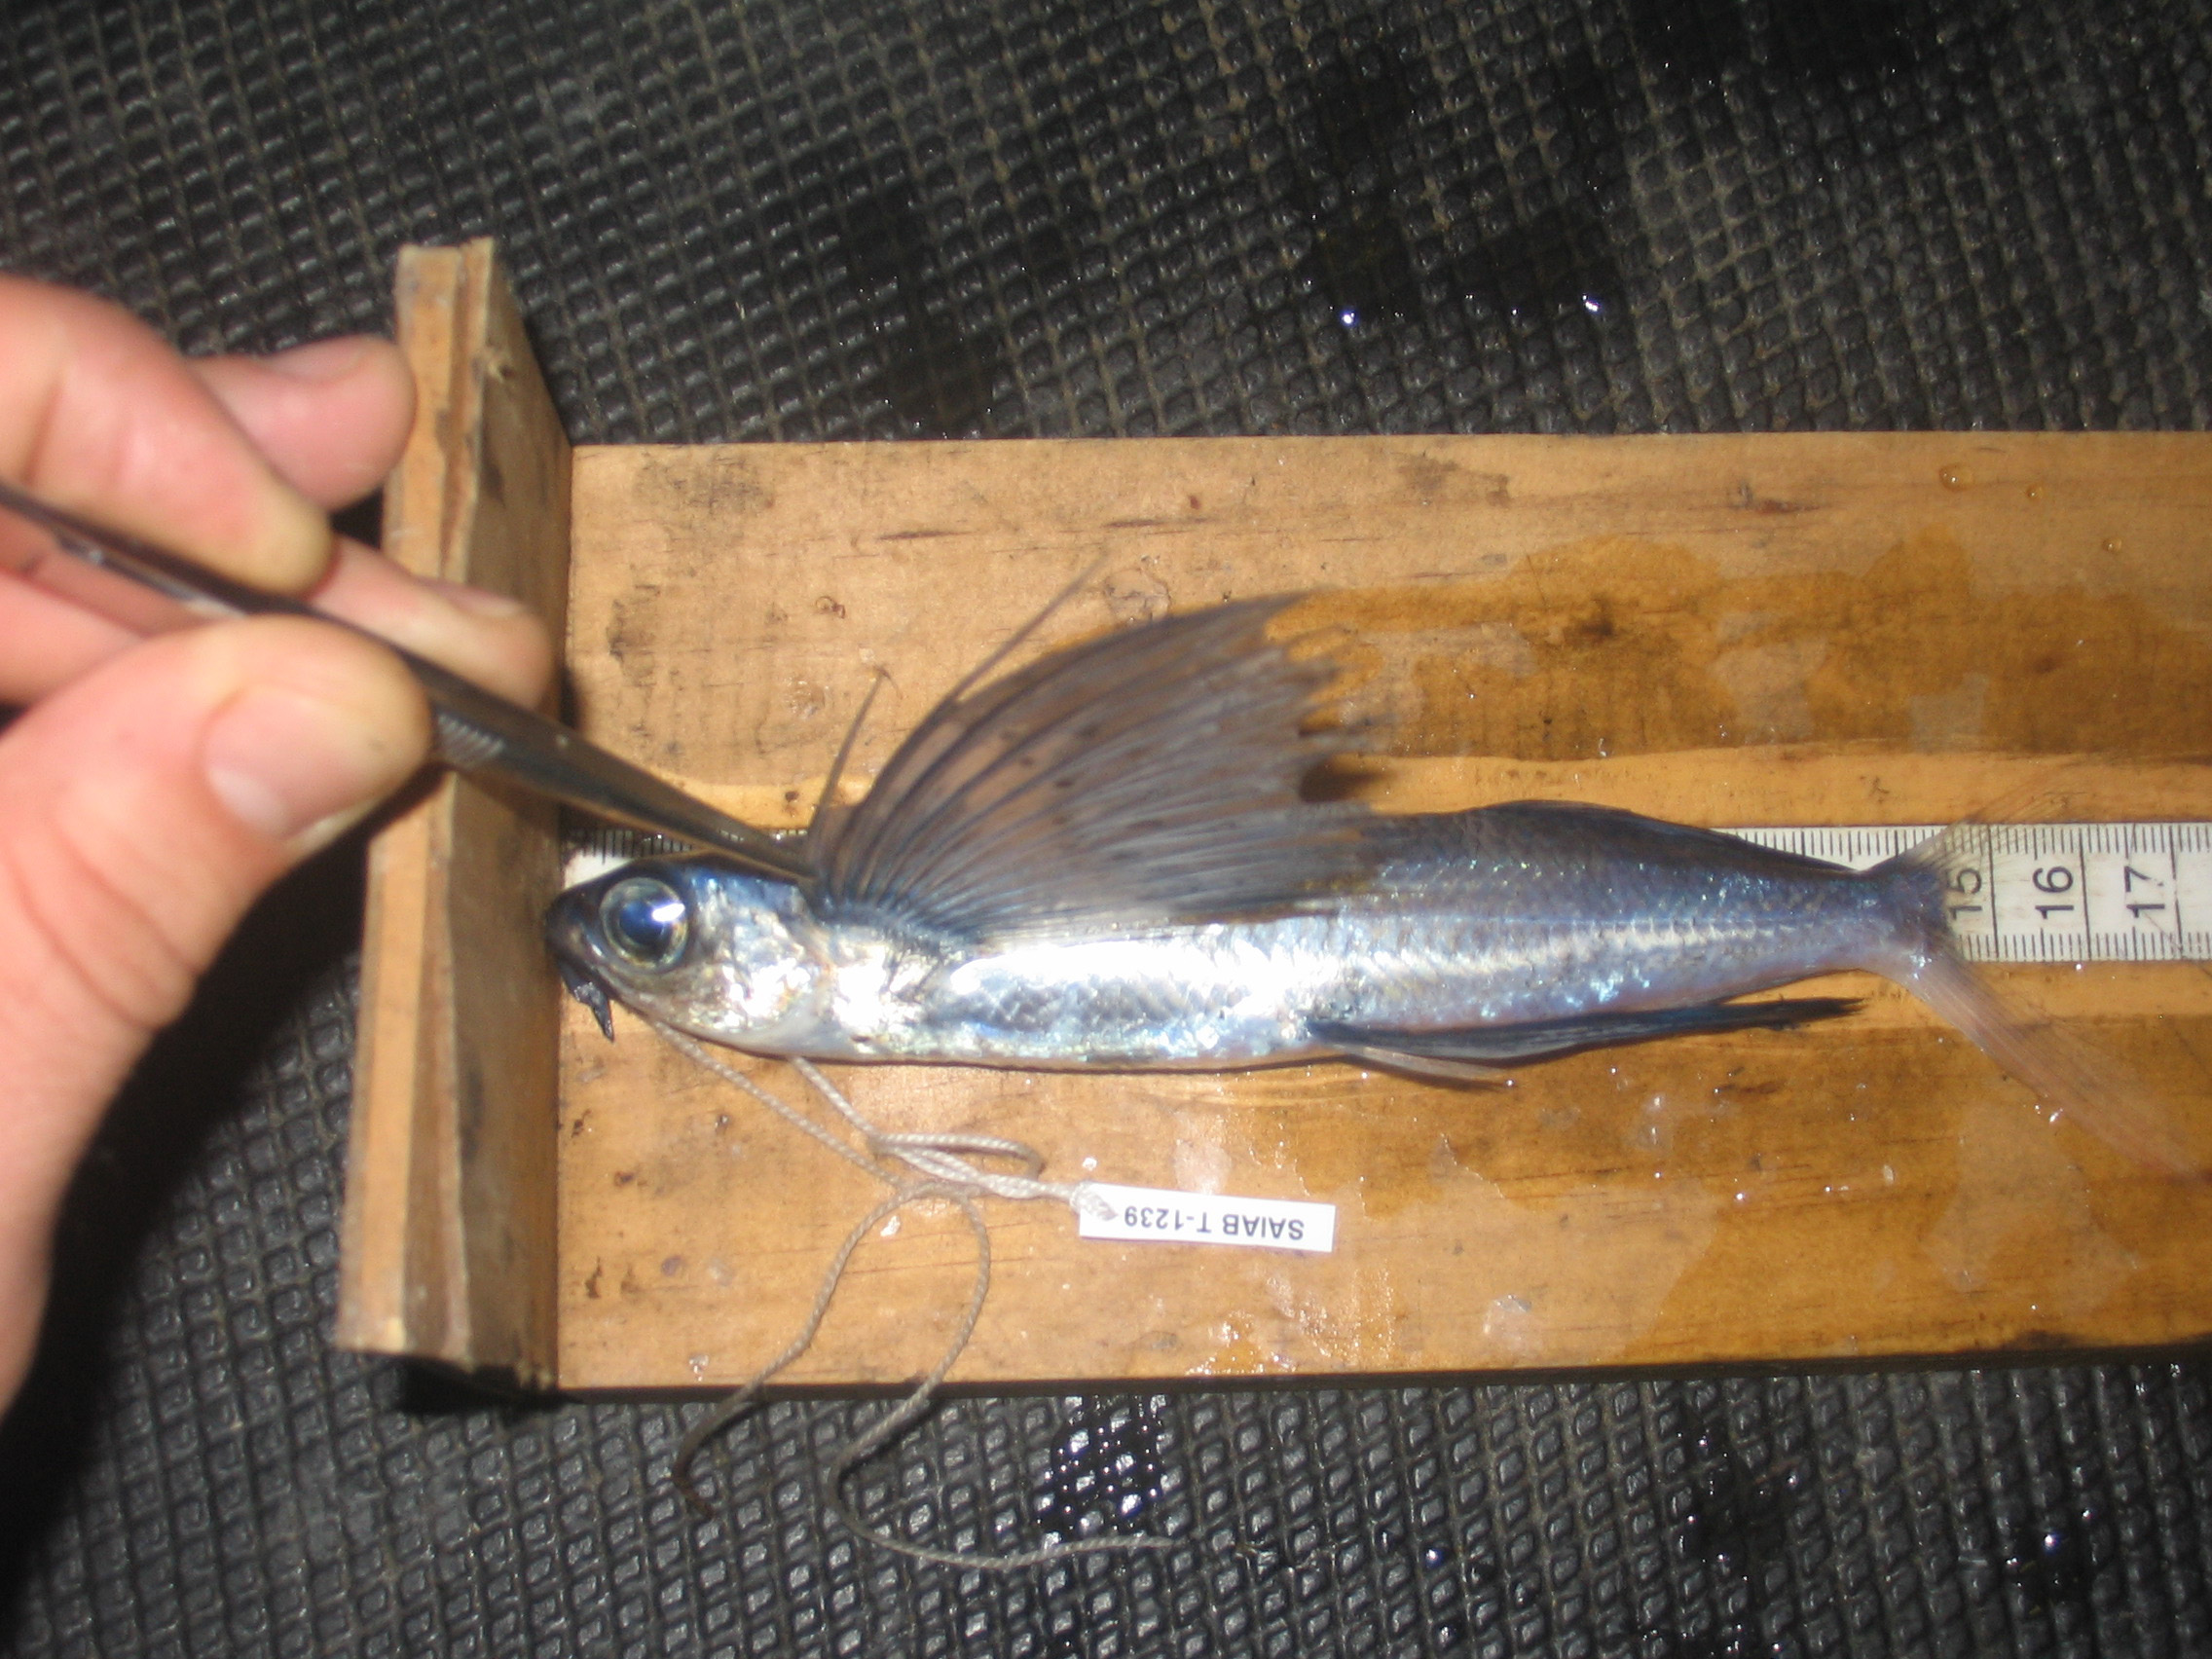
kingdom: Animalia
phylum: Chordata
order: Beloniformes
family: Exocoetidae
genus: Cheilopogon
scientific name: Cheilopogon altipennis
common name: Smallhead flyingfish
